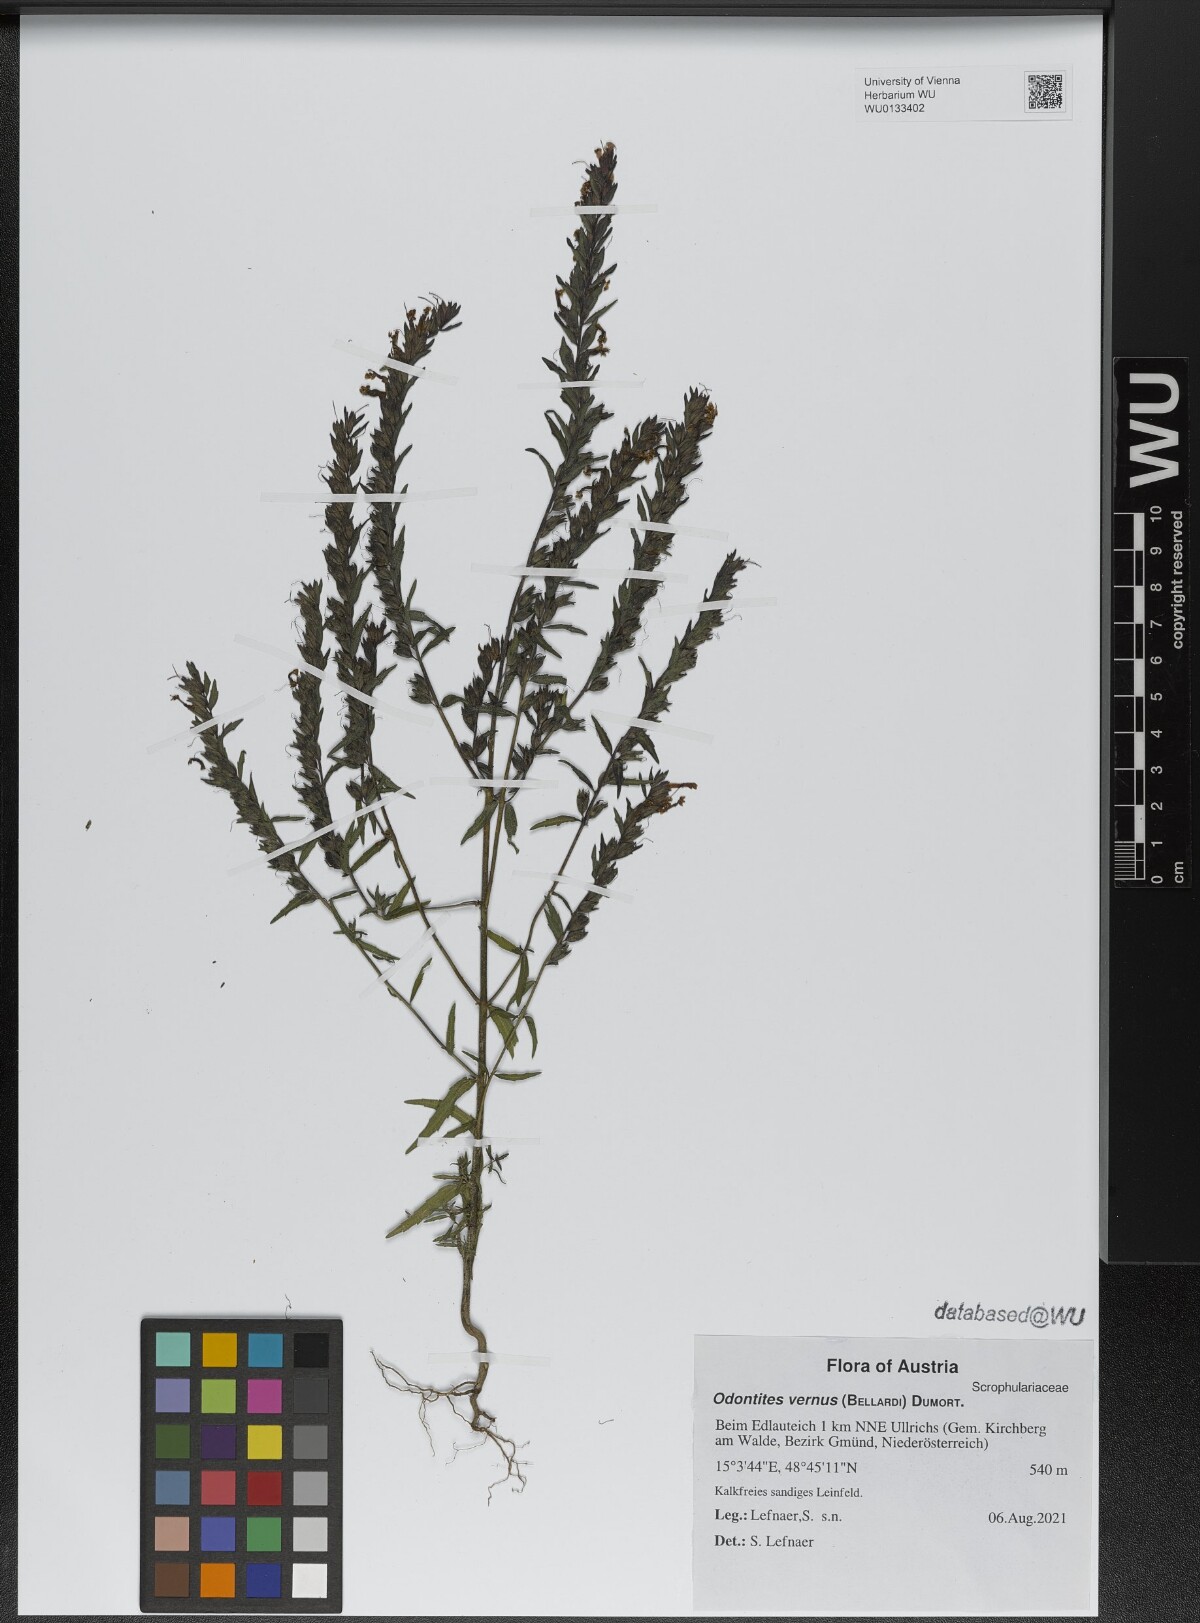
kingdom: Plantae
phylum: Tracheophyta
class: Magnoliopsida
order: Lamiales
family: Orobanchaceae
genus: Odontites
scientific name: Odontites vernus
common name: Red bartsia
